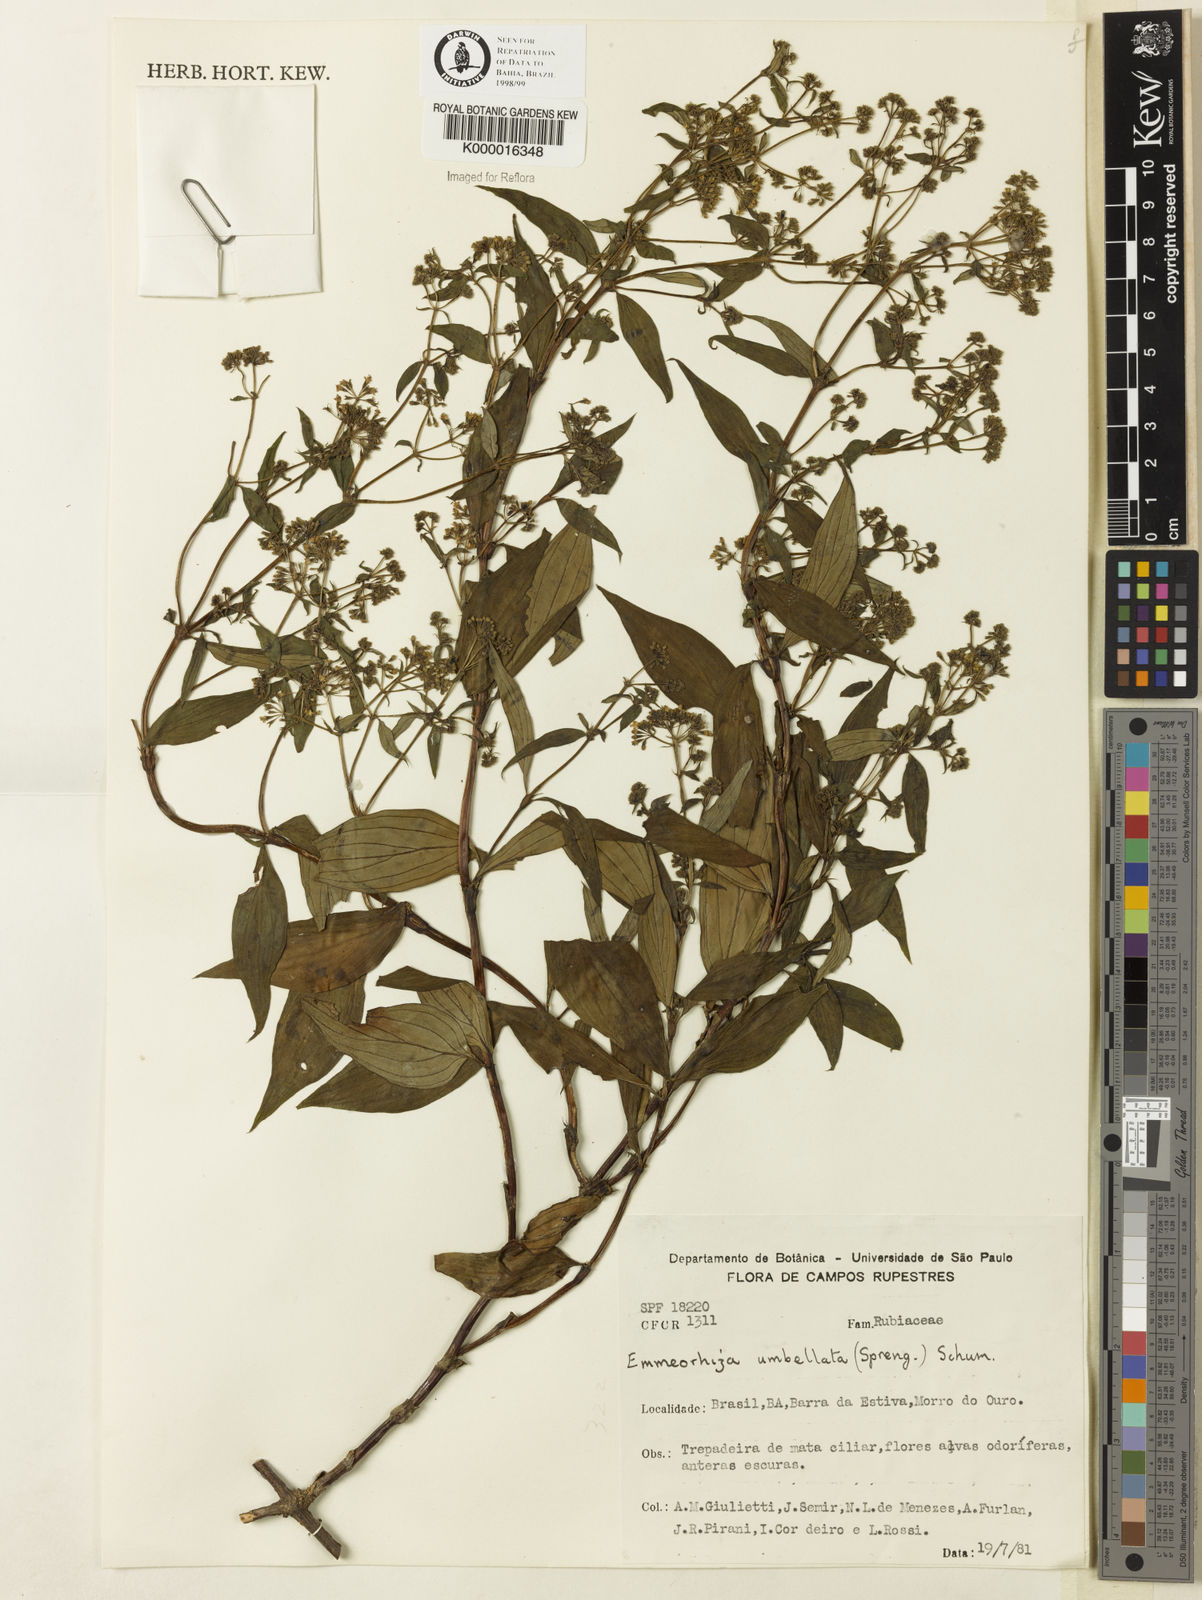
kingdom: Plantae
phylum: Tracheophyta
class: Magnoliopsida
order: Gentianales
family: Rubiaceae
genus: Emmeorhiza
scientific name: Emmeorhiza umbellata
